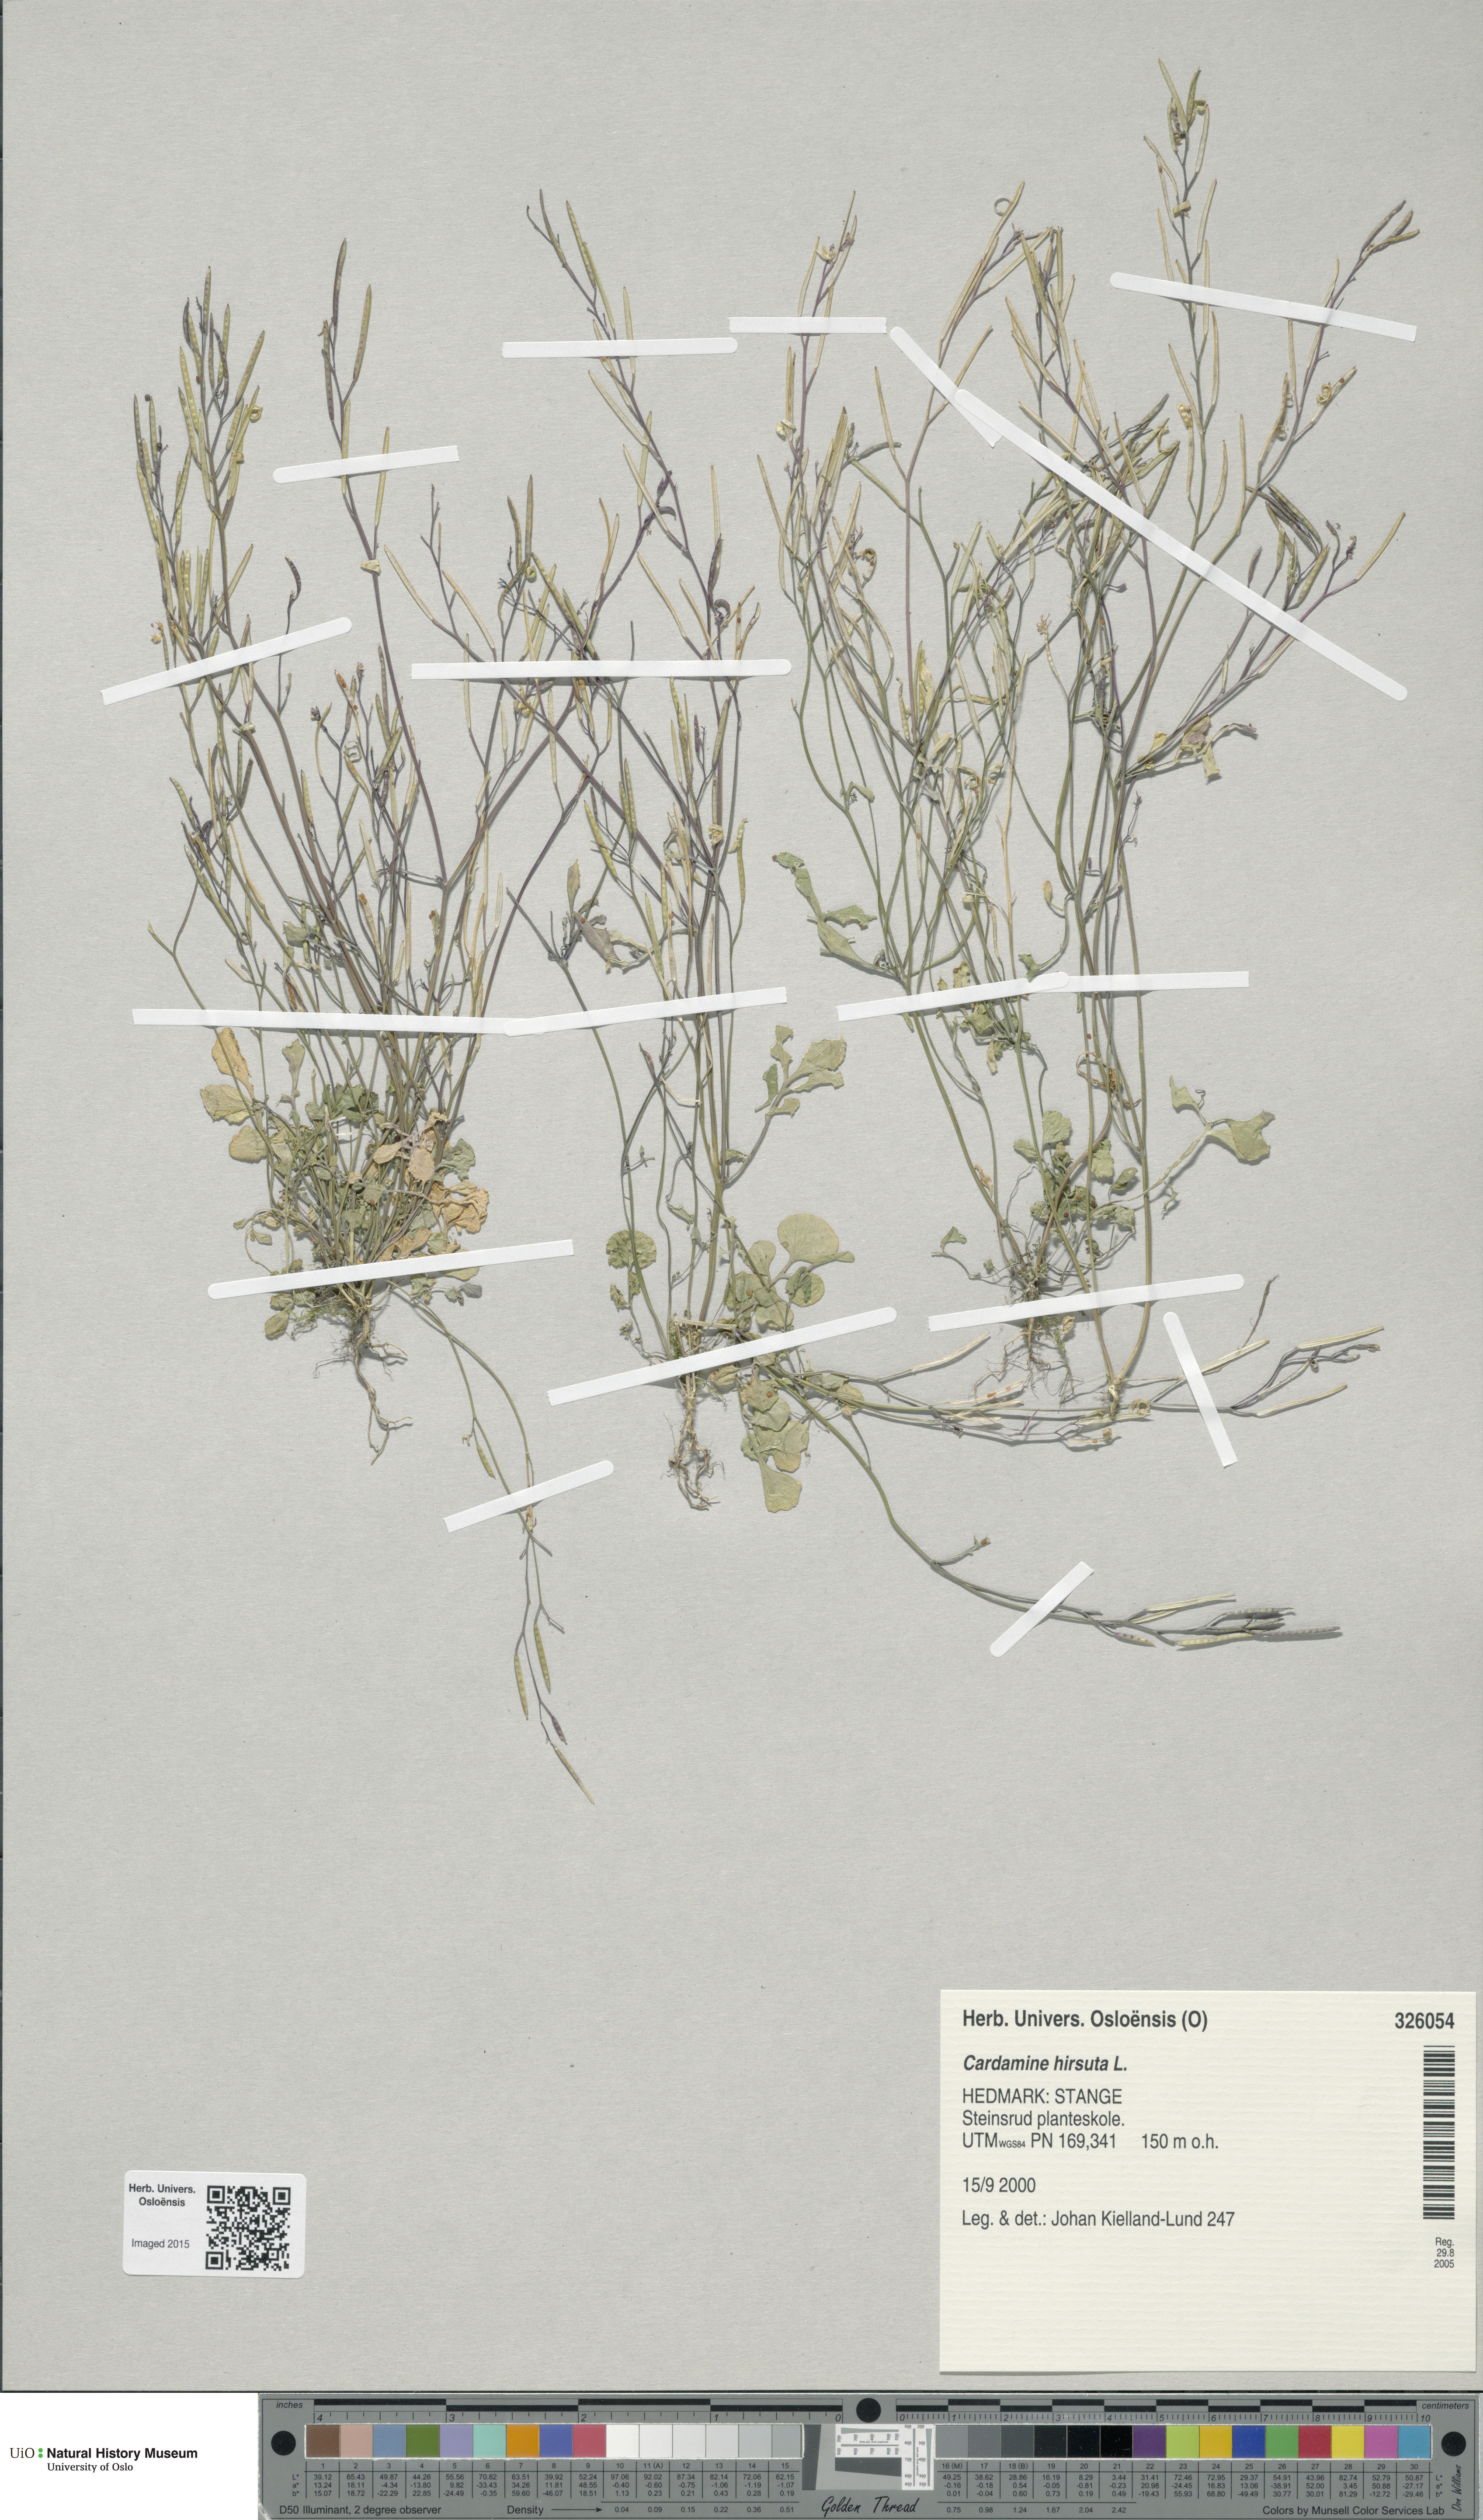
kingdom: Plantae
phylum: Tracheophyta
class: Magnoliopsida
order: Brassicales
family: Brassicaceae
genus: Cardamine
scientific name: Cardamine hirsuta
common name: Hairy bittercress
